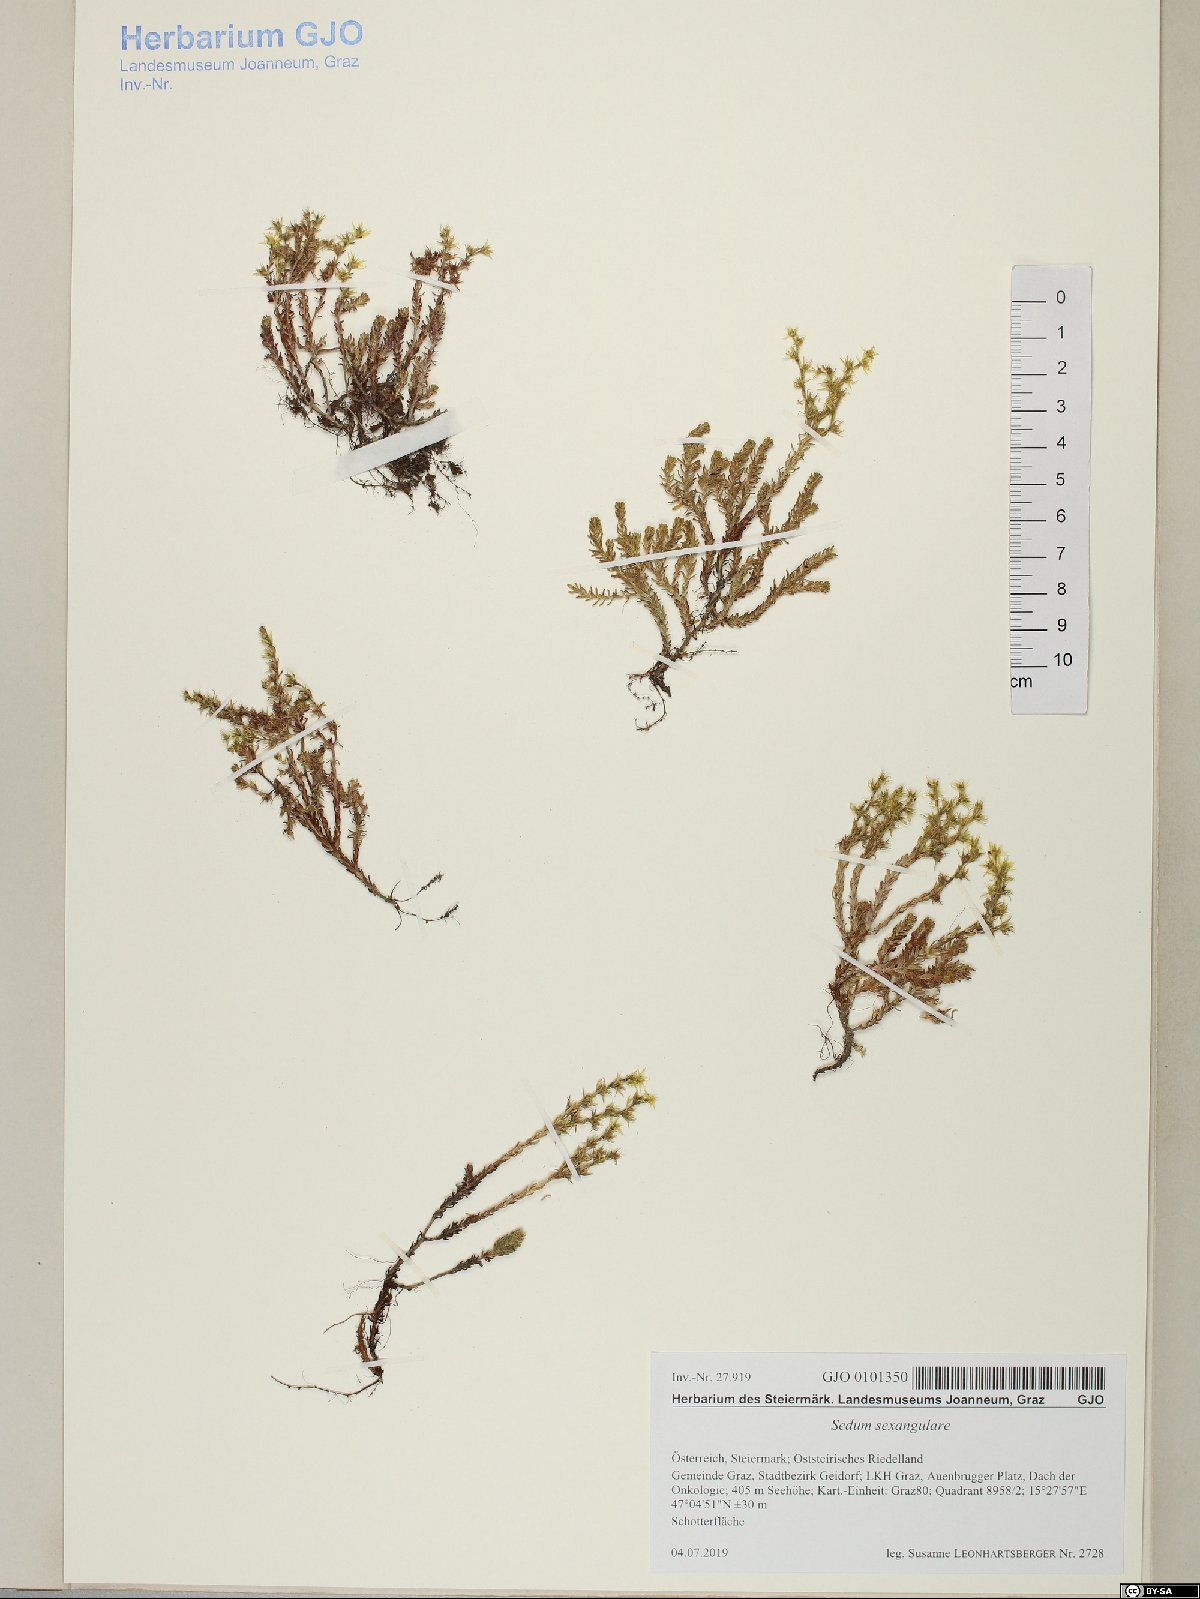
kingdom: Plantae
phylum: Tracheophyta
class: Magnoliopsida
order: Saxifragales
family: Crassulaceae
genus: Sedum
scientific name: Sedum sexangulare
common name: Tasteless stonecrop
